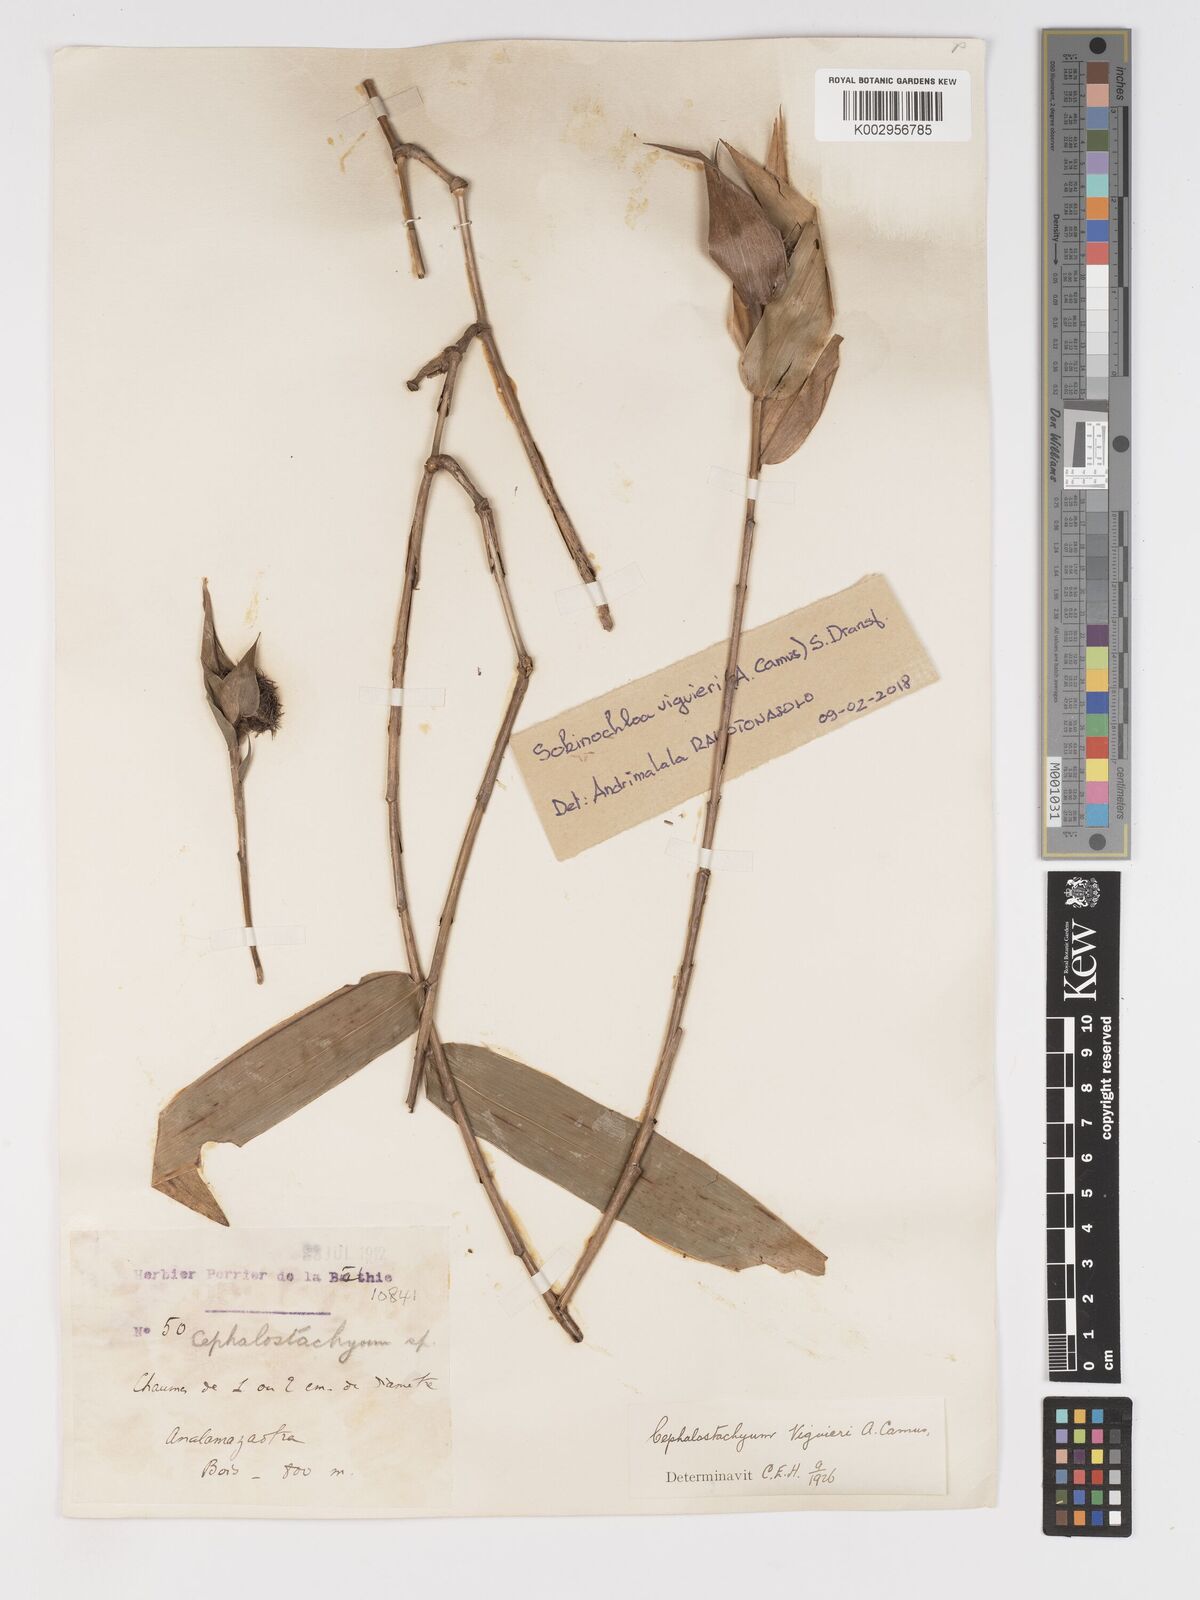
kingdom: Plantae
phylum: Tracheophyta
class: Liliopsida
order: Poales
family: Poaceae
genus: Sokinochloa
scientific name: Sokinochloa
